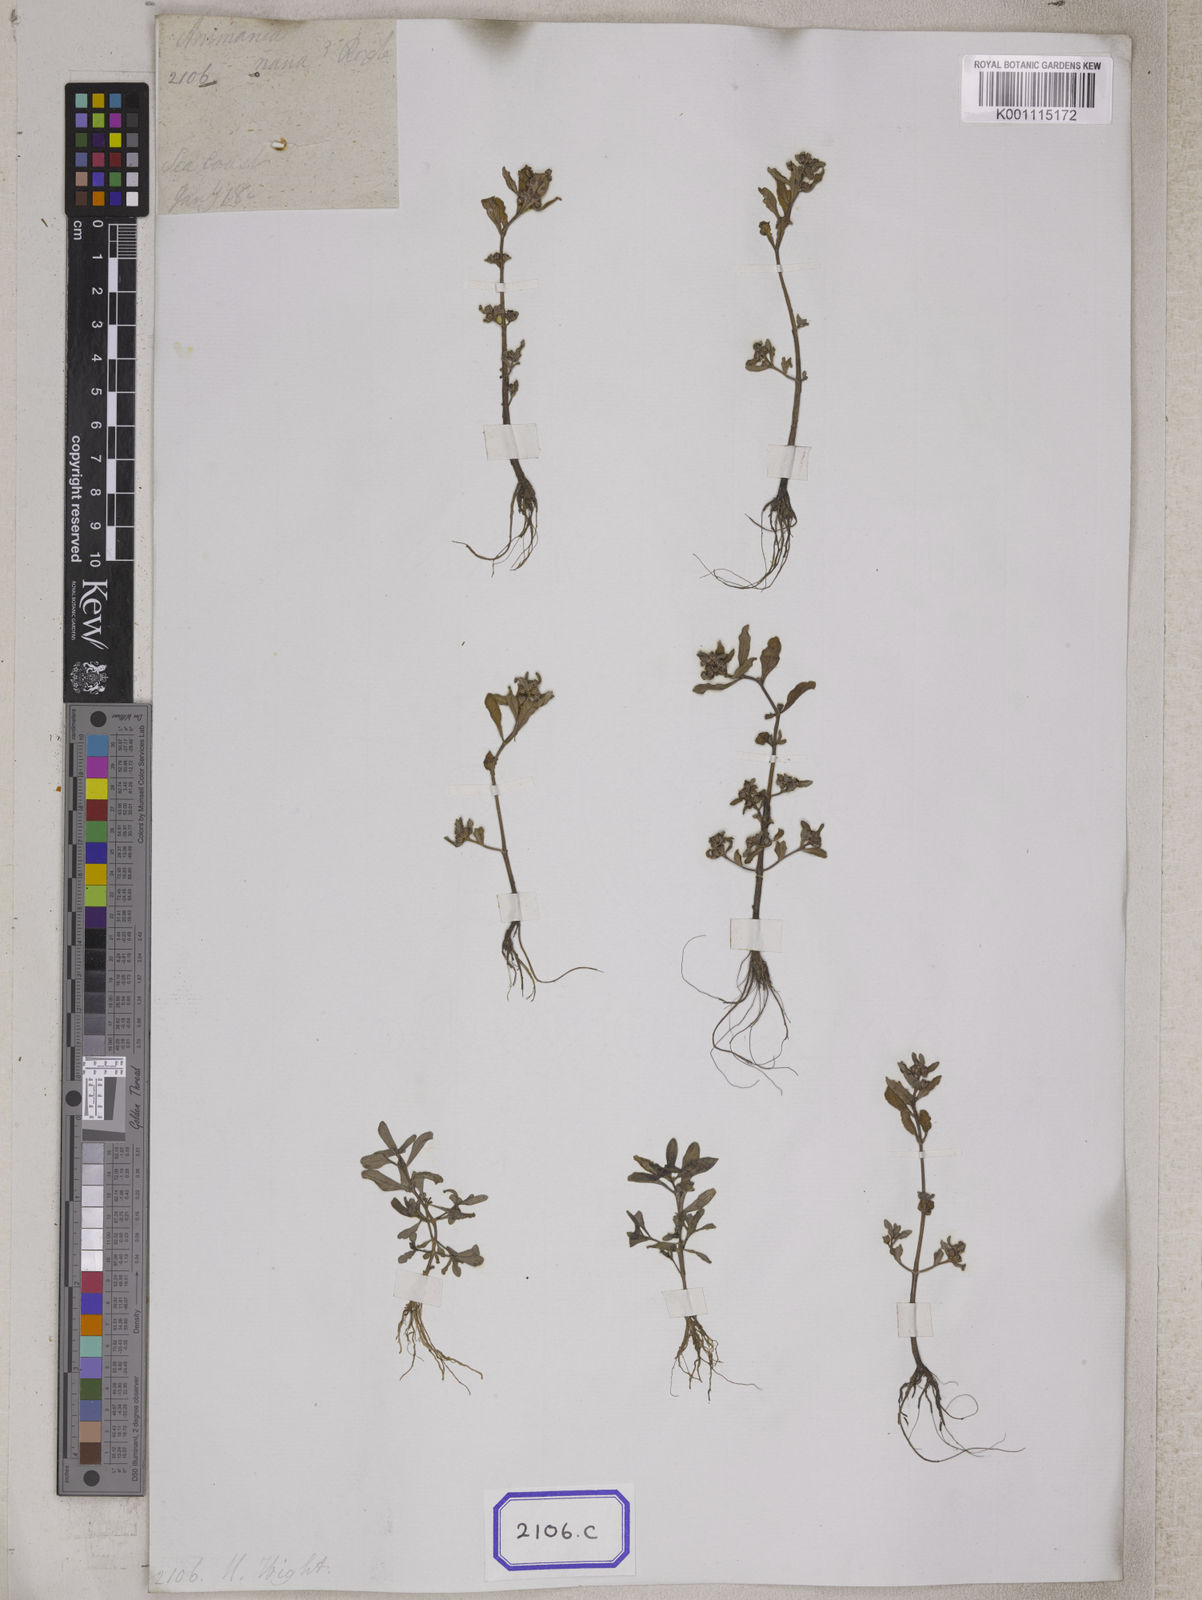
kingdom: Plantae
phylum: Tracheophyta
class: Magnoliopsida
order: Myrtales
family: Lythraceae
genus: Ammannia
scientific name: Ammannia
